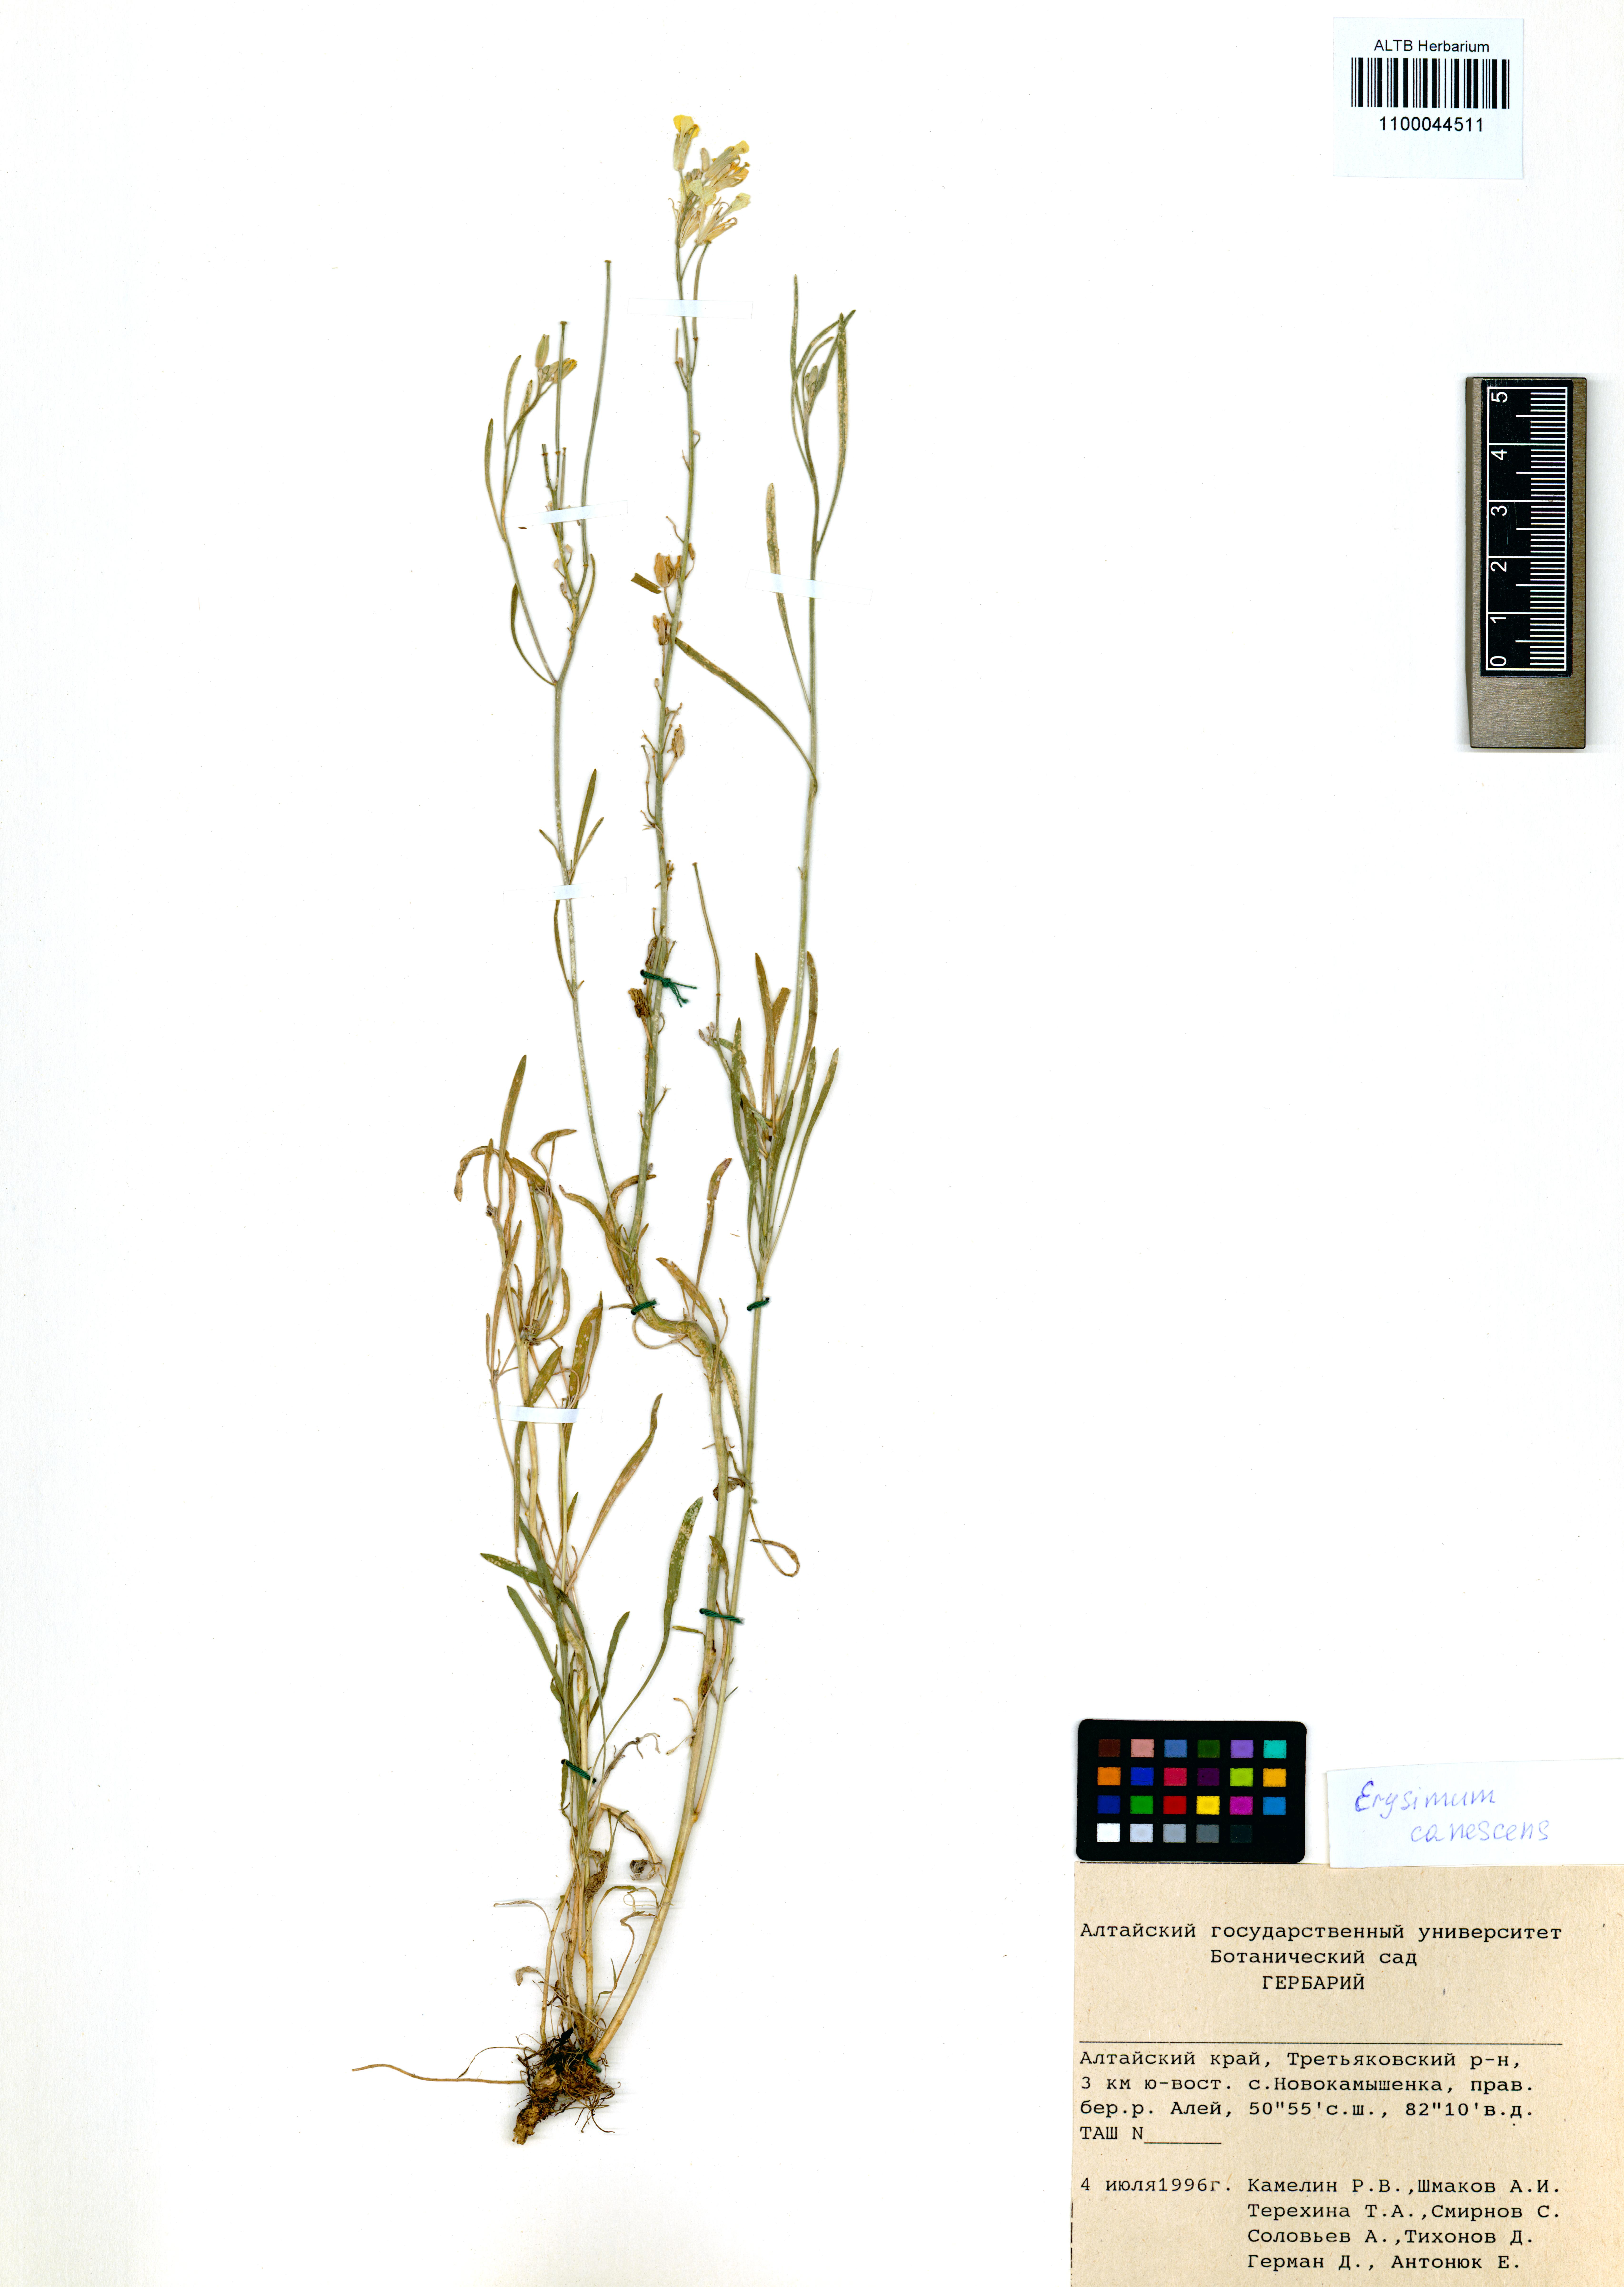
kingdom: Plantae
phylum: Tracheophyta
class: Magnoliopsida
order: Brassicales
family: Brassicaceae
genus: Erysimum
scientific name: Erysimum canescens
